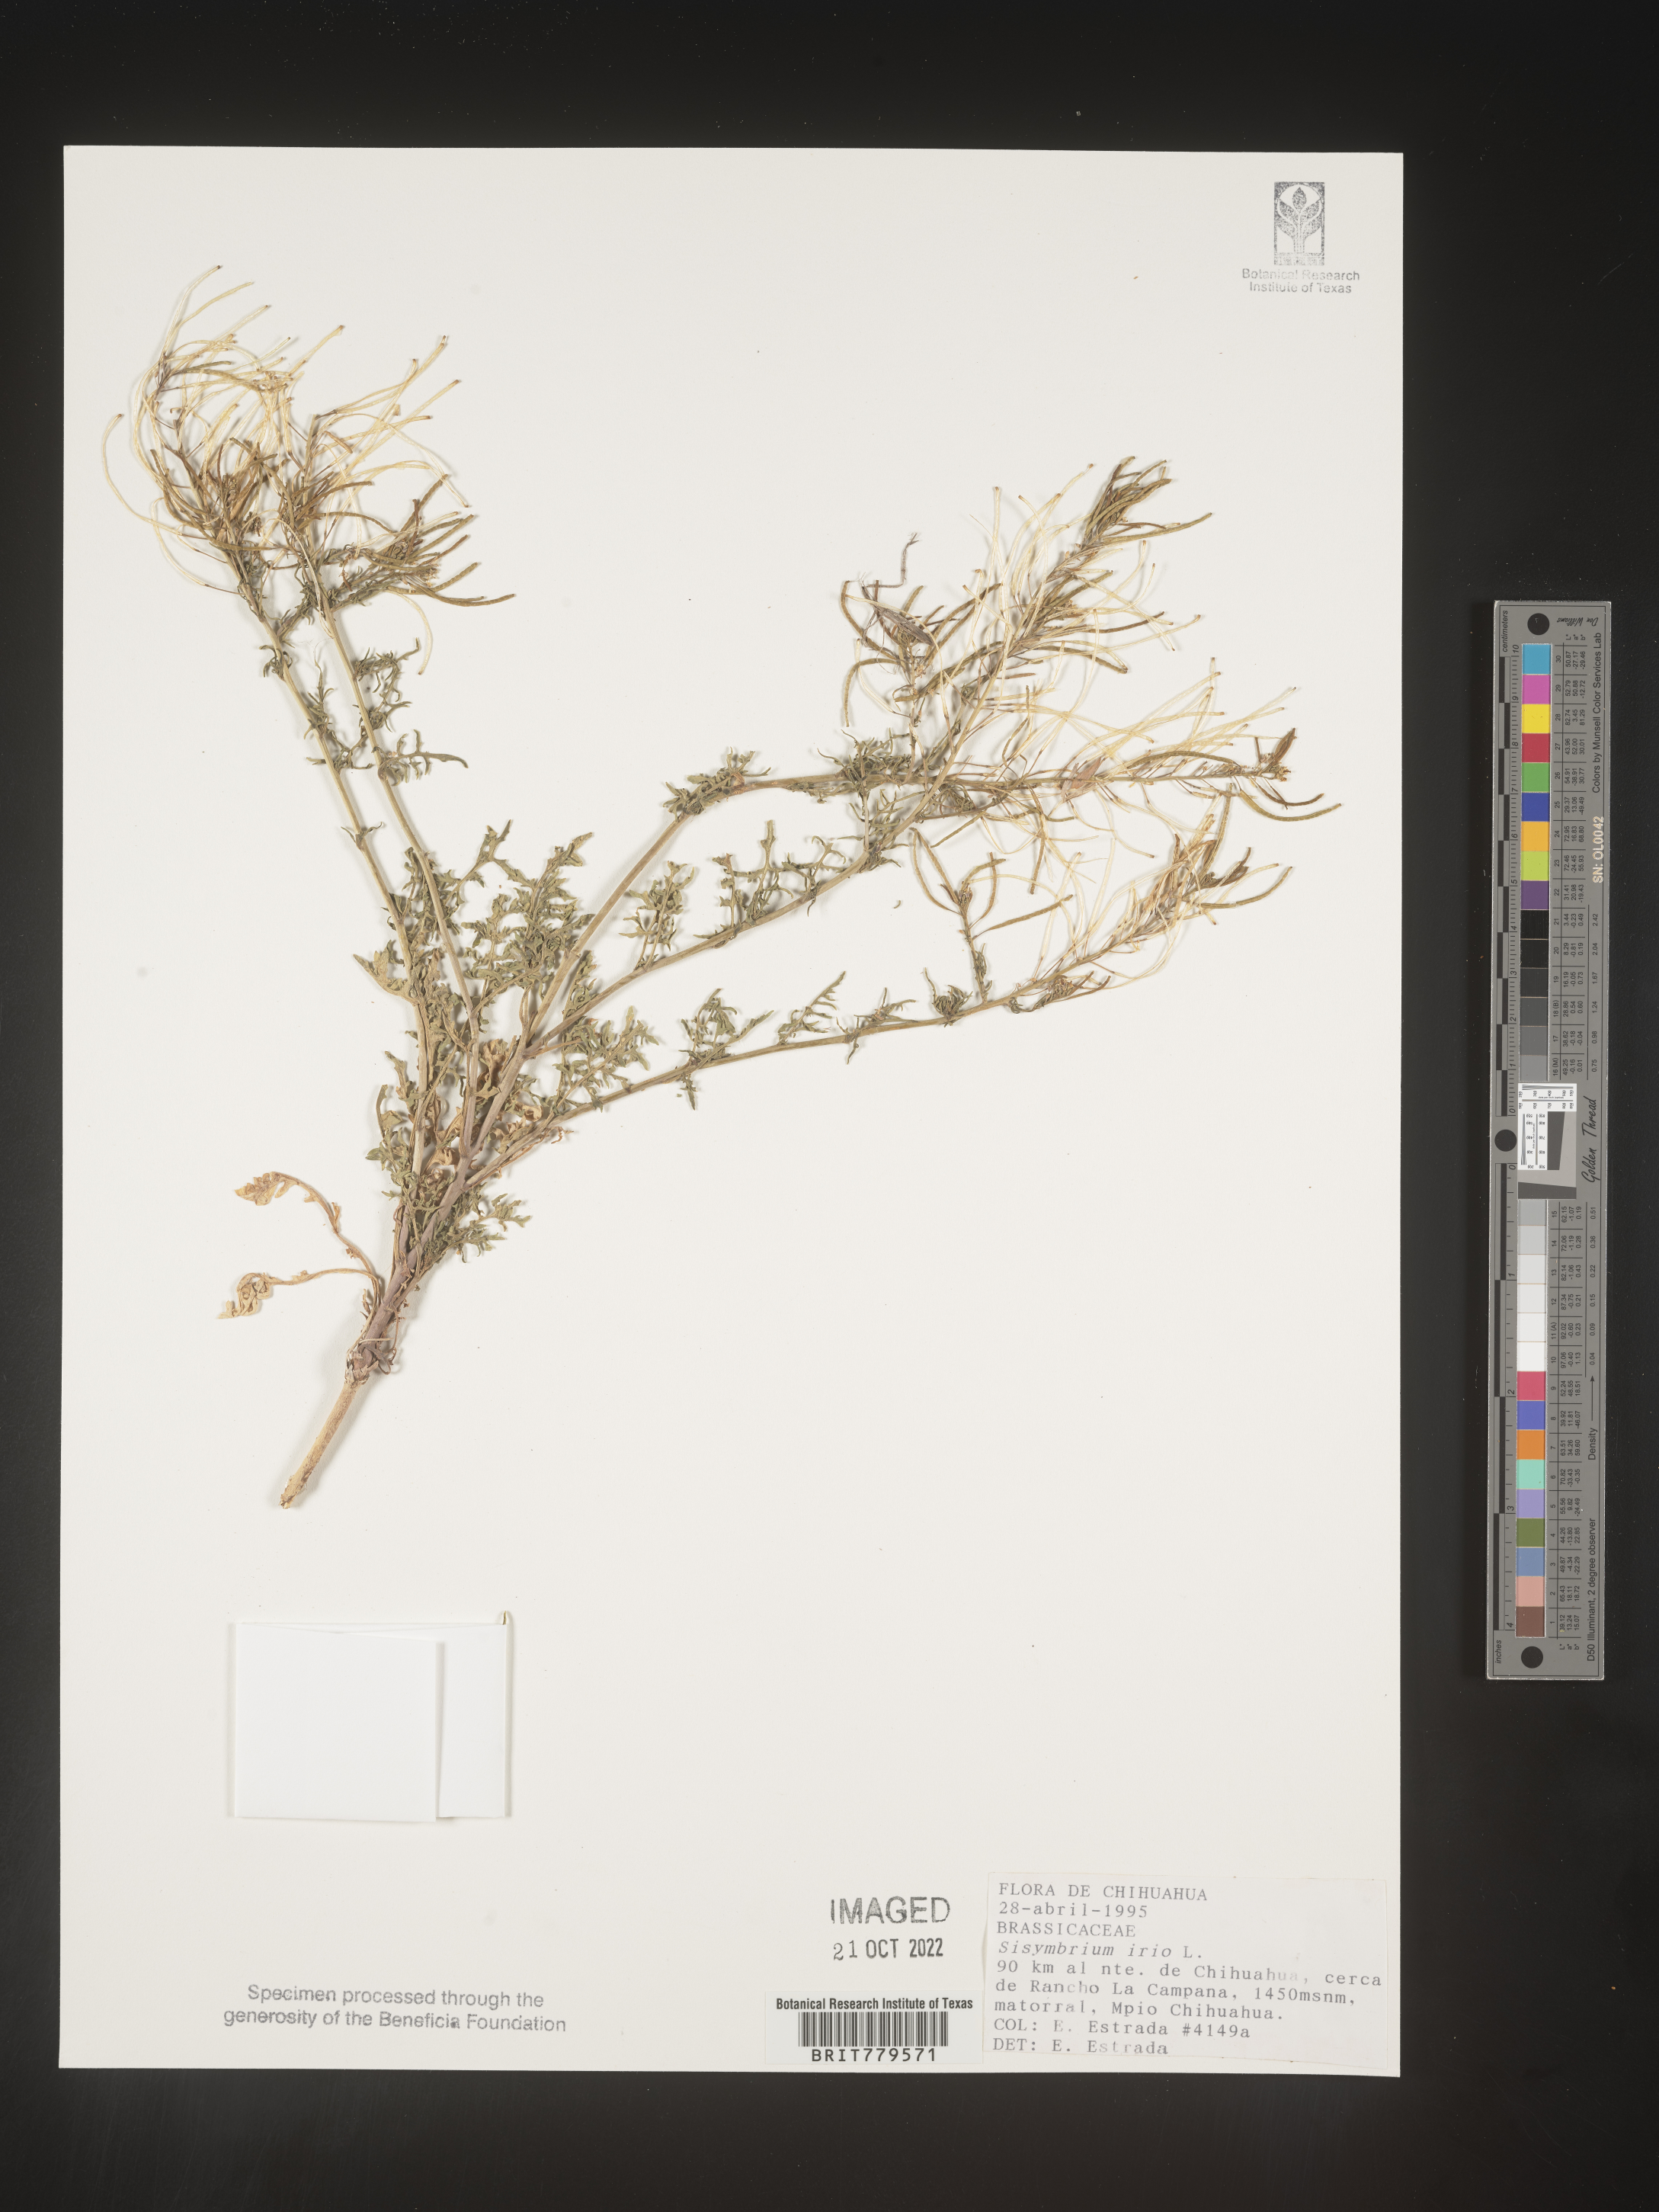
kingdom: Plantae
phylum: Tracheophyta
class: Magnoliopsida
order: Brassicales
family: Brassicaceae
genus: Sisymbrium
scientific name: Sisymbrium
